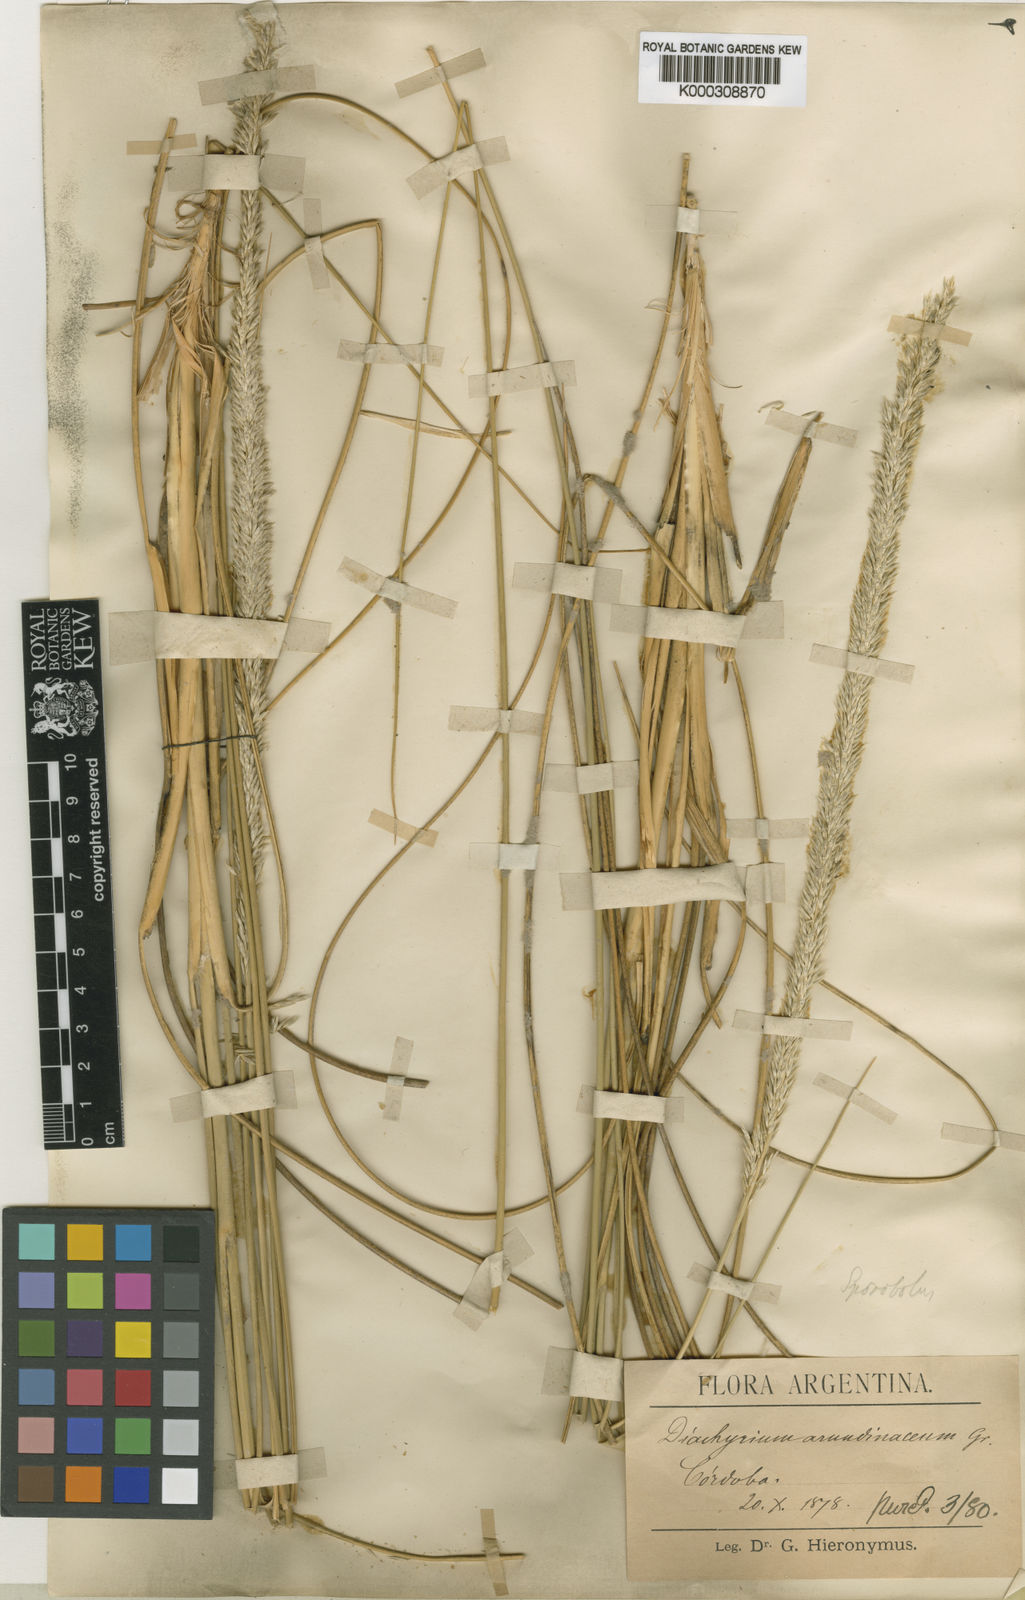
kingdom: Plantae
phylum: Tracheophyta
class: Liliopsida
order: Poales
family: Poaceae
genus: Sporobolus
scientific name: Sporobolus rigens
